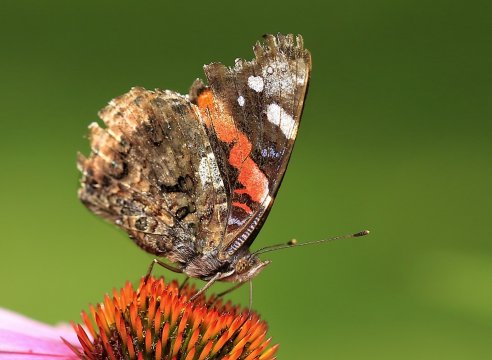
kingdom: Animalia
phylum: Arthropoda
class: Insecta
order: Lepidoptera
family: Nymphalidae
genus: Vanessa
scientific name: Vanessa atalanta
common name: Red Admiral
